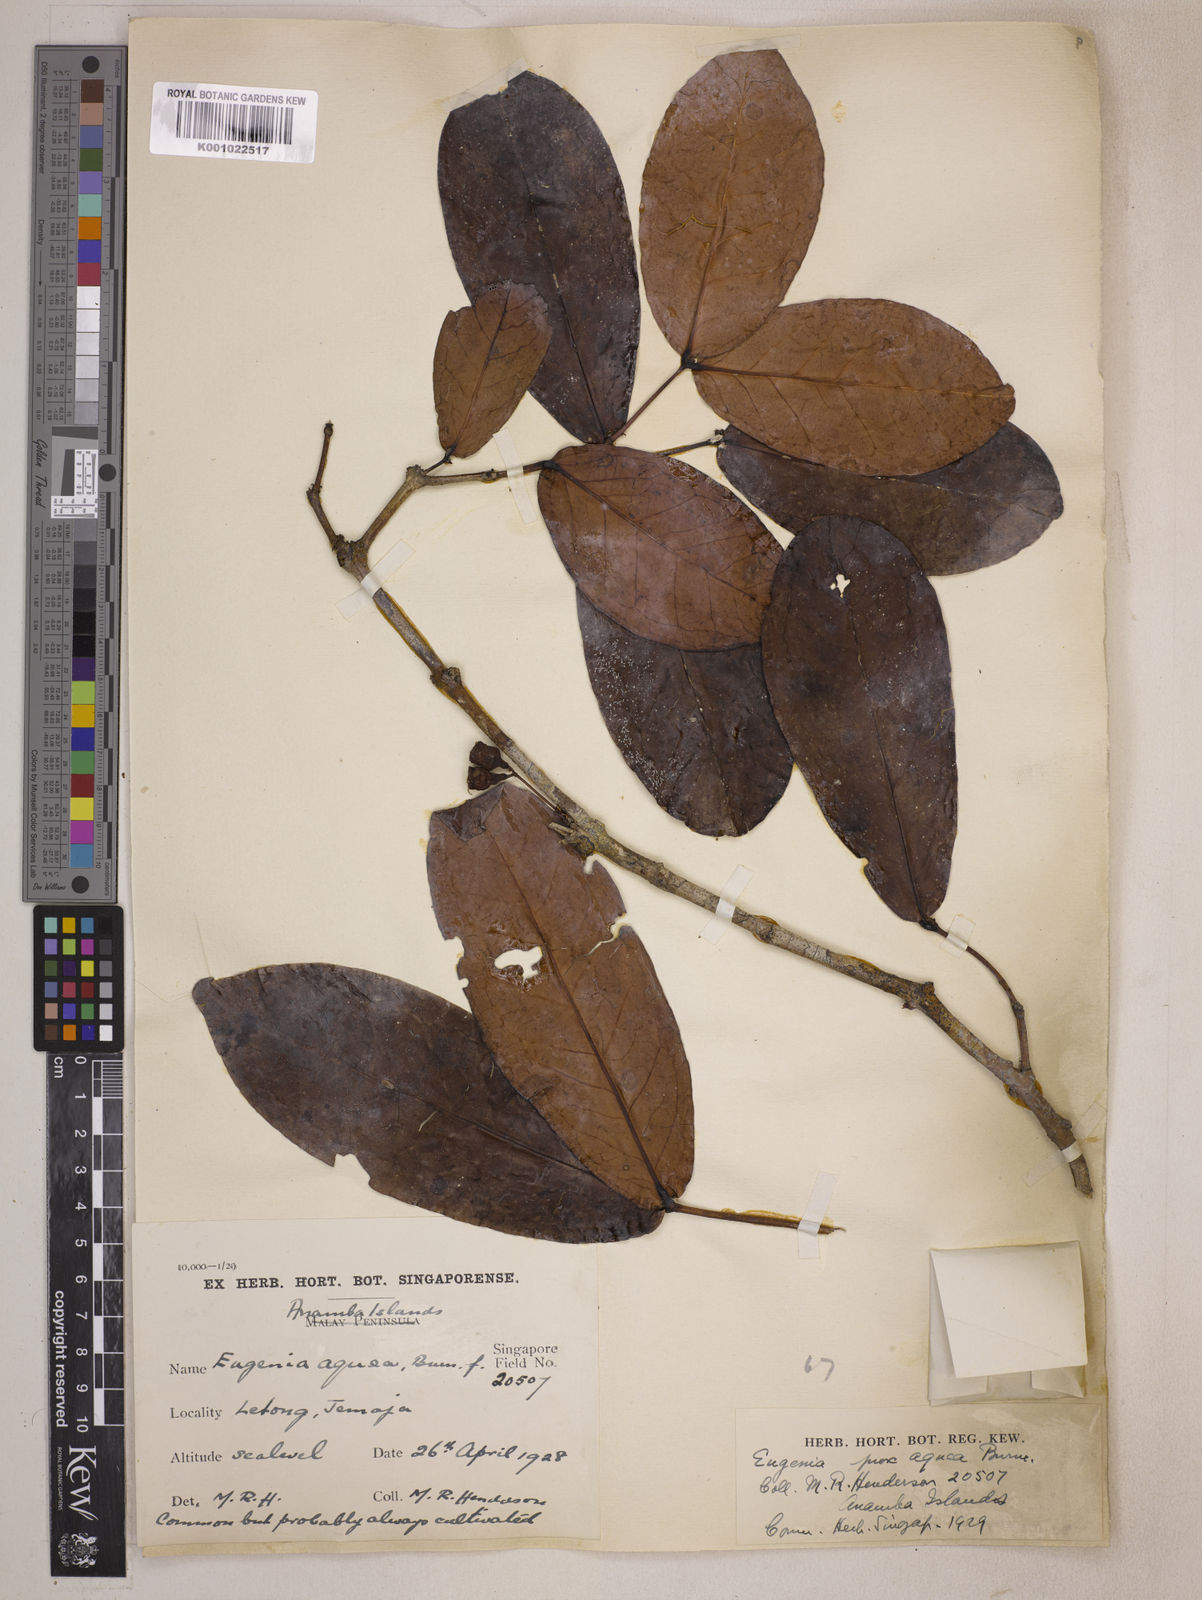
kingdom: Plantae
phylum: Tracheophyta
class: Magnoliopsida
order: Myrtales
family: Myrtaceae
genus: Syzygium
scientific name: Syzygium aqueum
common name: Water-apple
